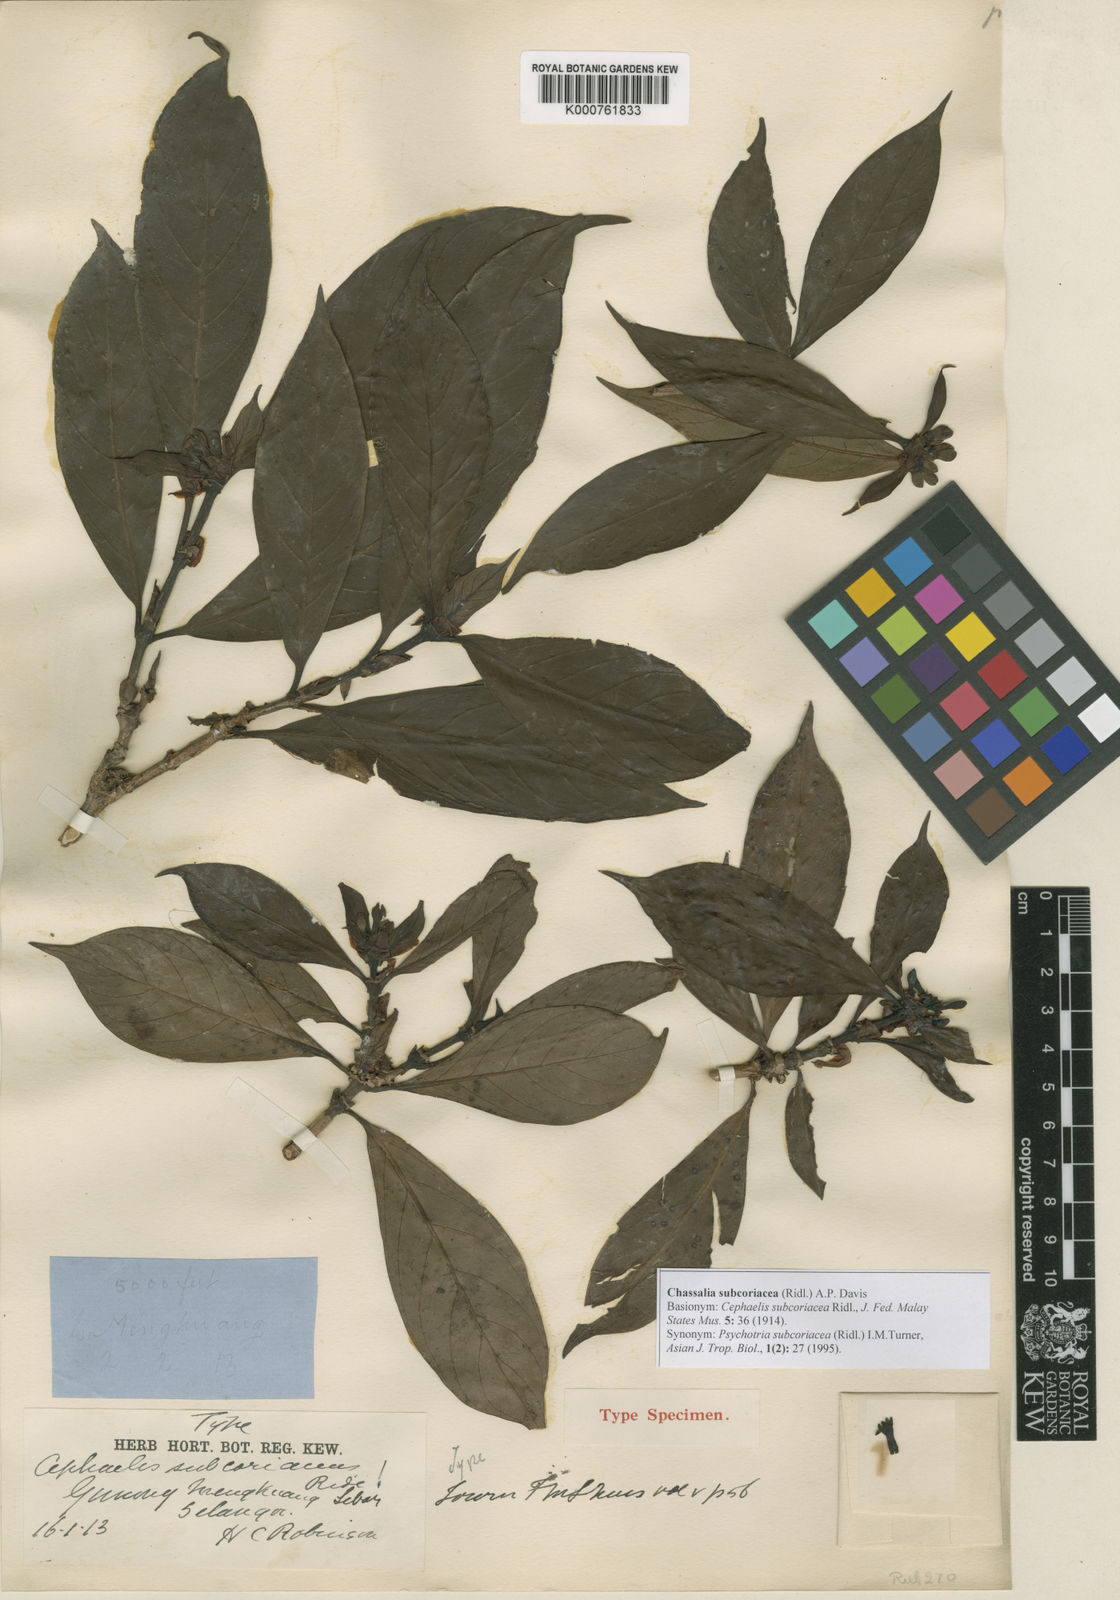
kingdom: Plantae
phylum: Tracheophyta
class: Magnoliopsida
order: Gentianales
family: Rubiaceae
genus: Chassalia
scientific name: Chassalia subcoriacea
